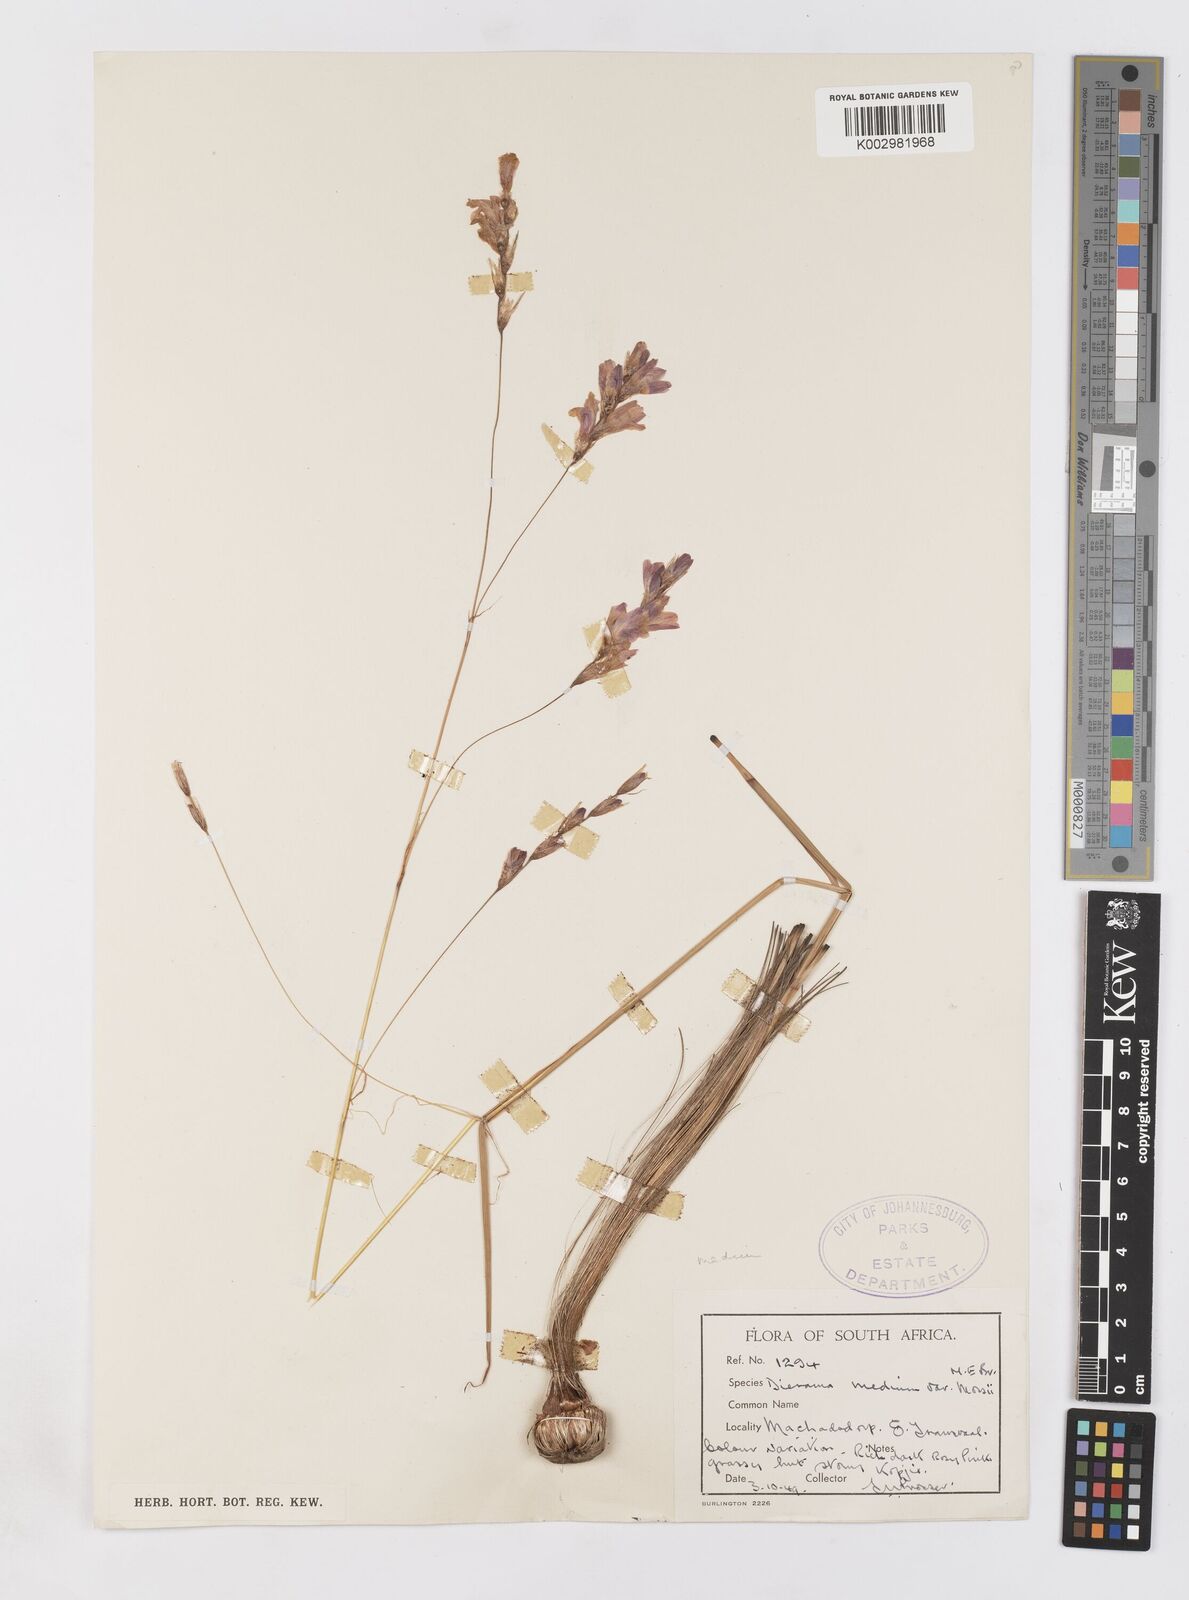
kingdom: Plantae
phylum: Tracheophyta
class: Liliopsida
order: Asparagales
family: Iridaceae
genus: Dierama
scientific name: Dierama medium
